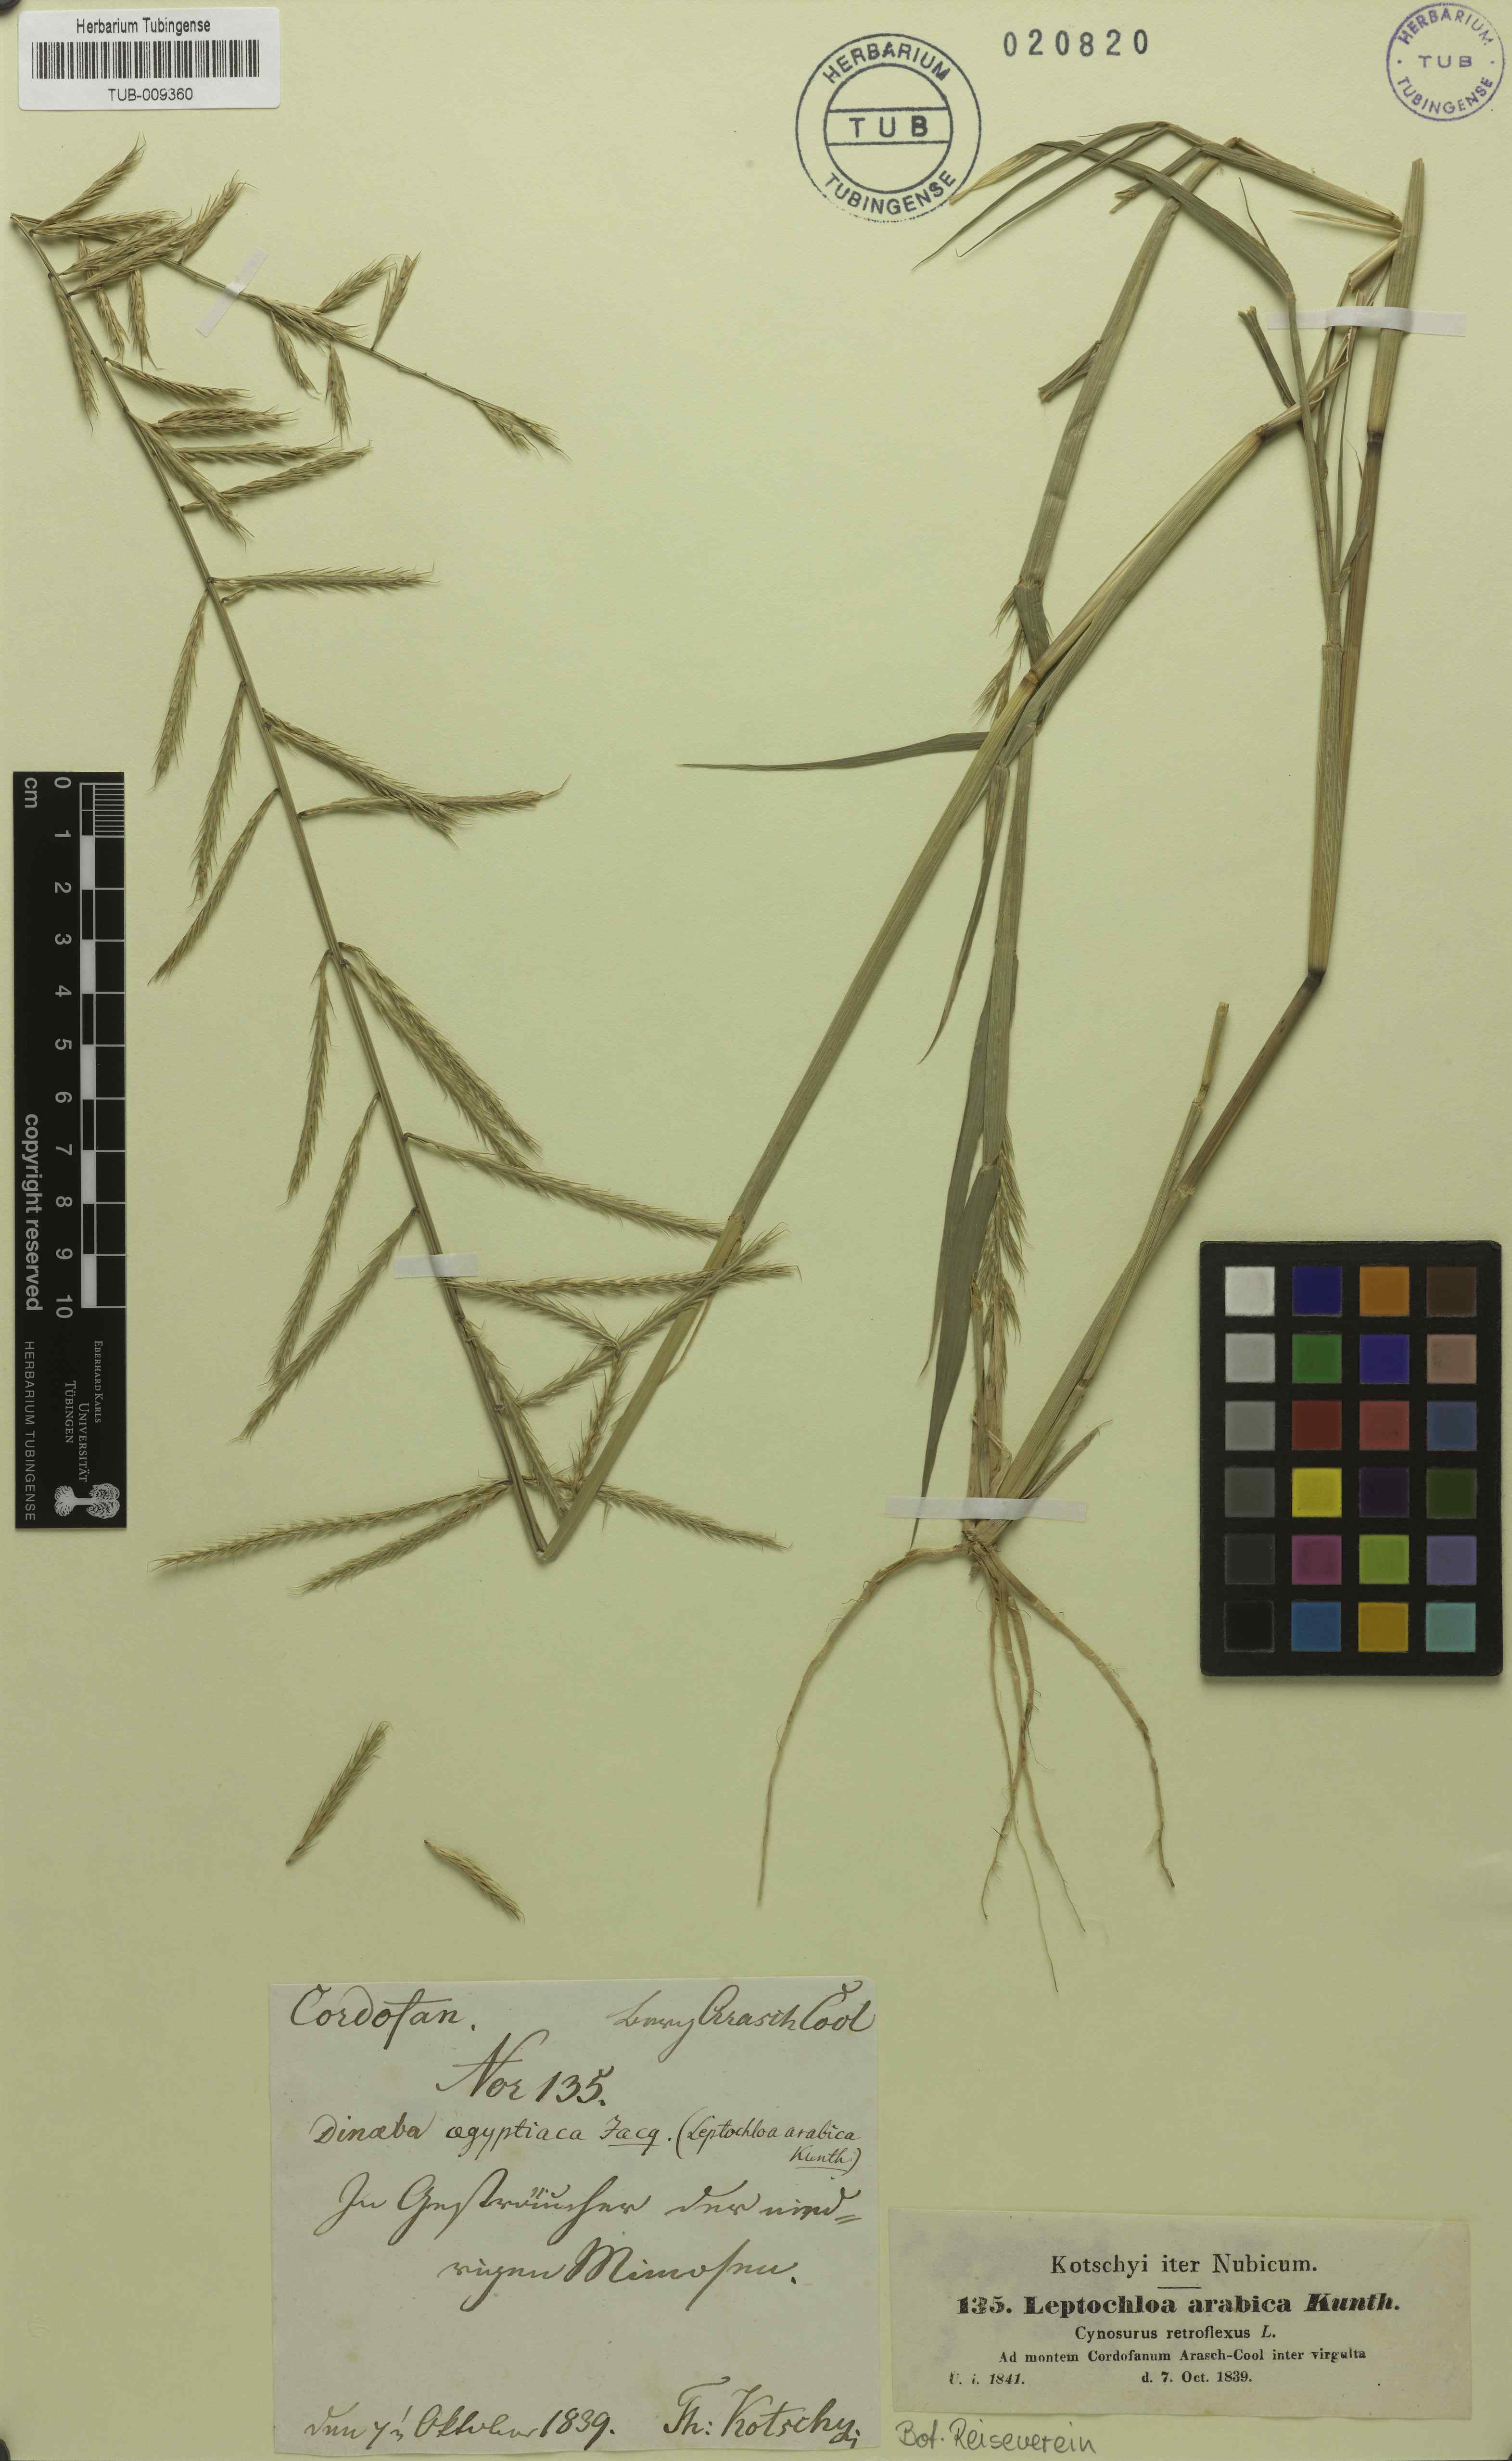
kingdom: Plantae
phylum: Tracheophyta
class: Liliopsida
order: Poales
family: Poaceae
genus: Dinebra
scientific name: Dinebra retroflexa
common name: Viper grass
